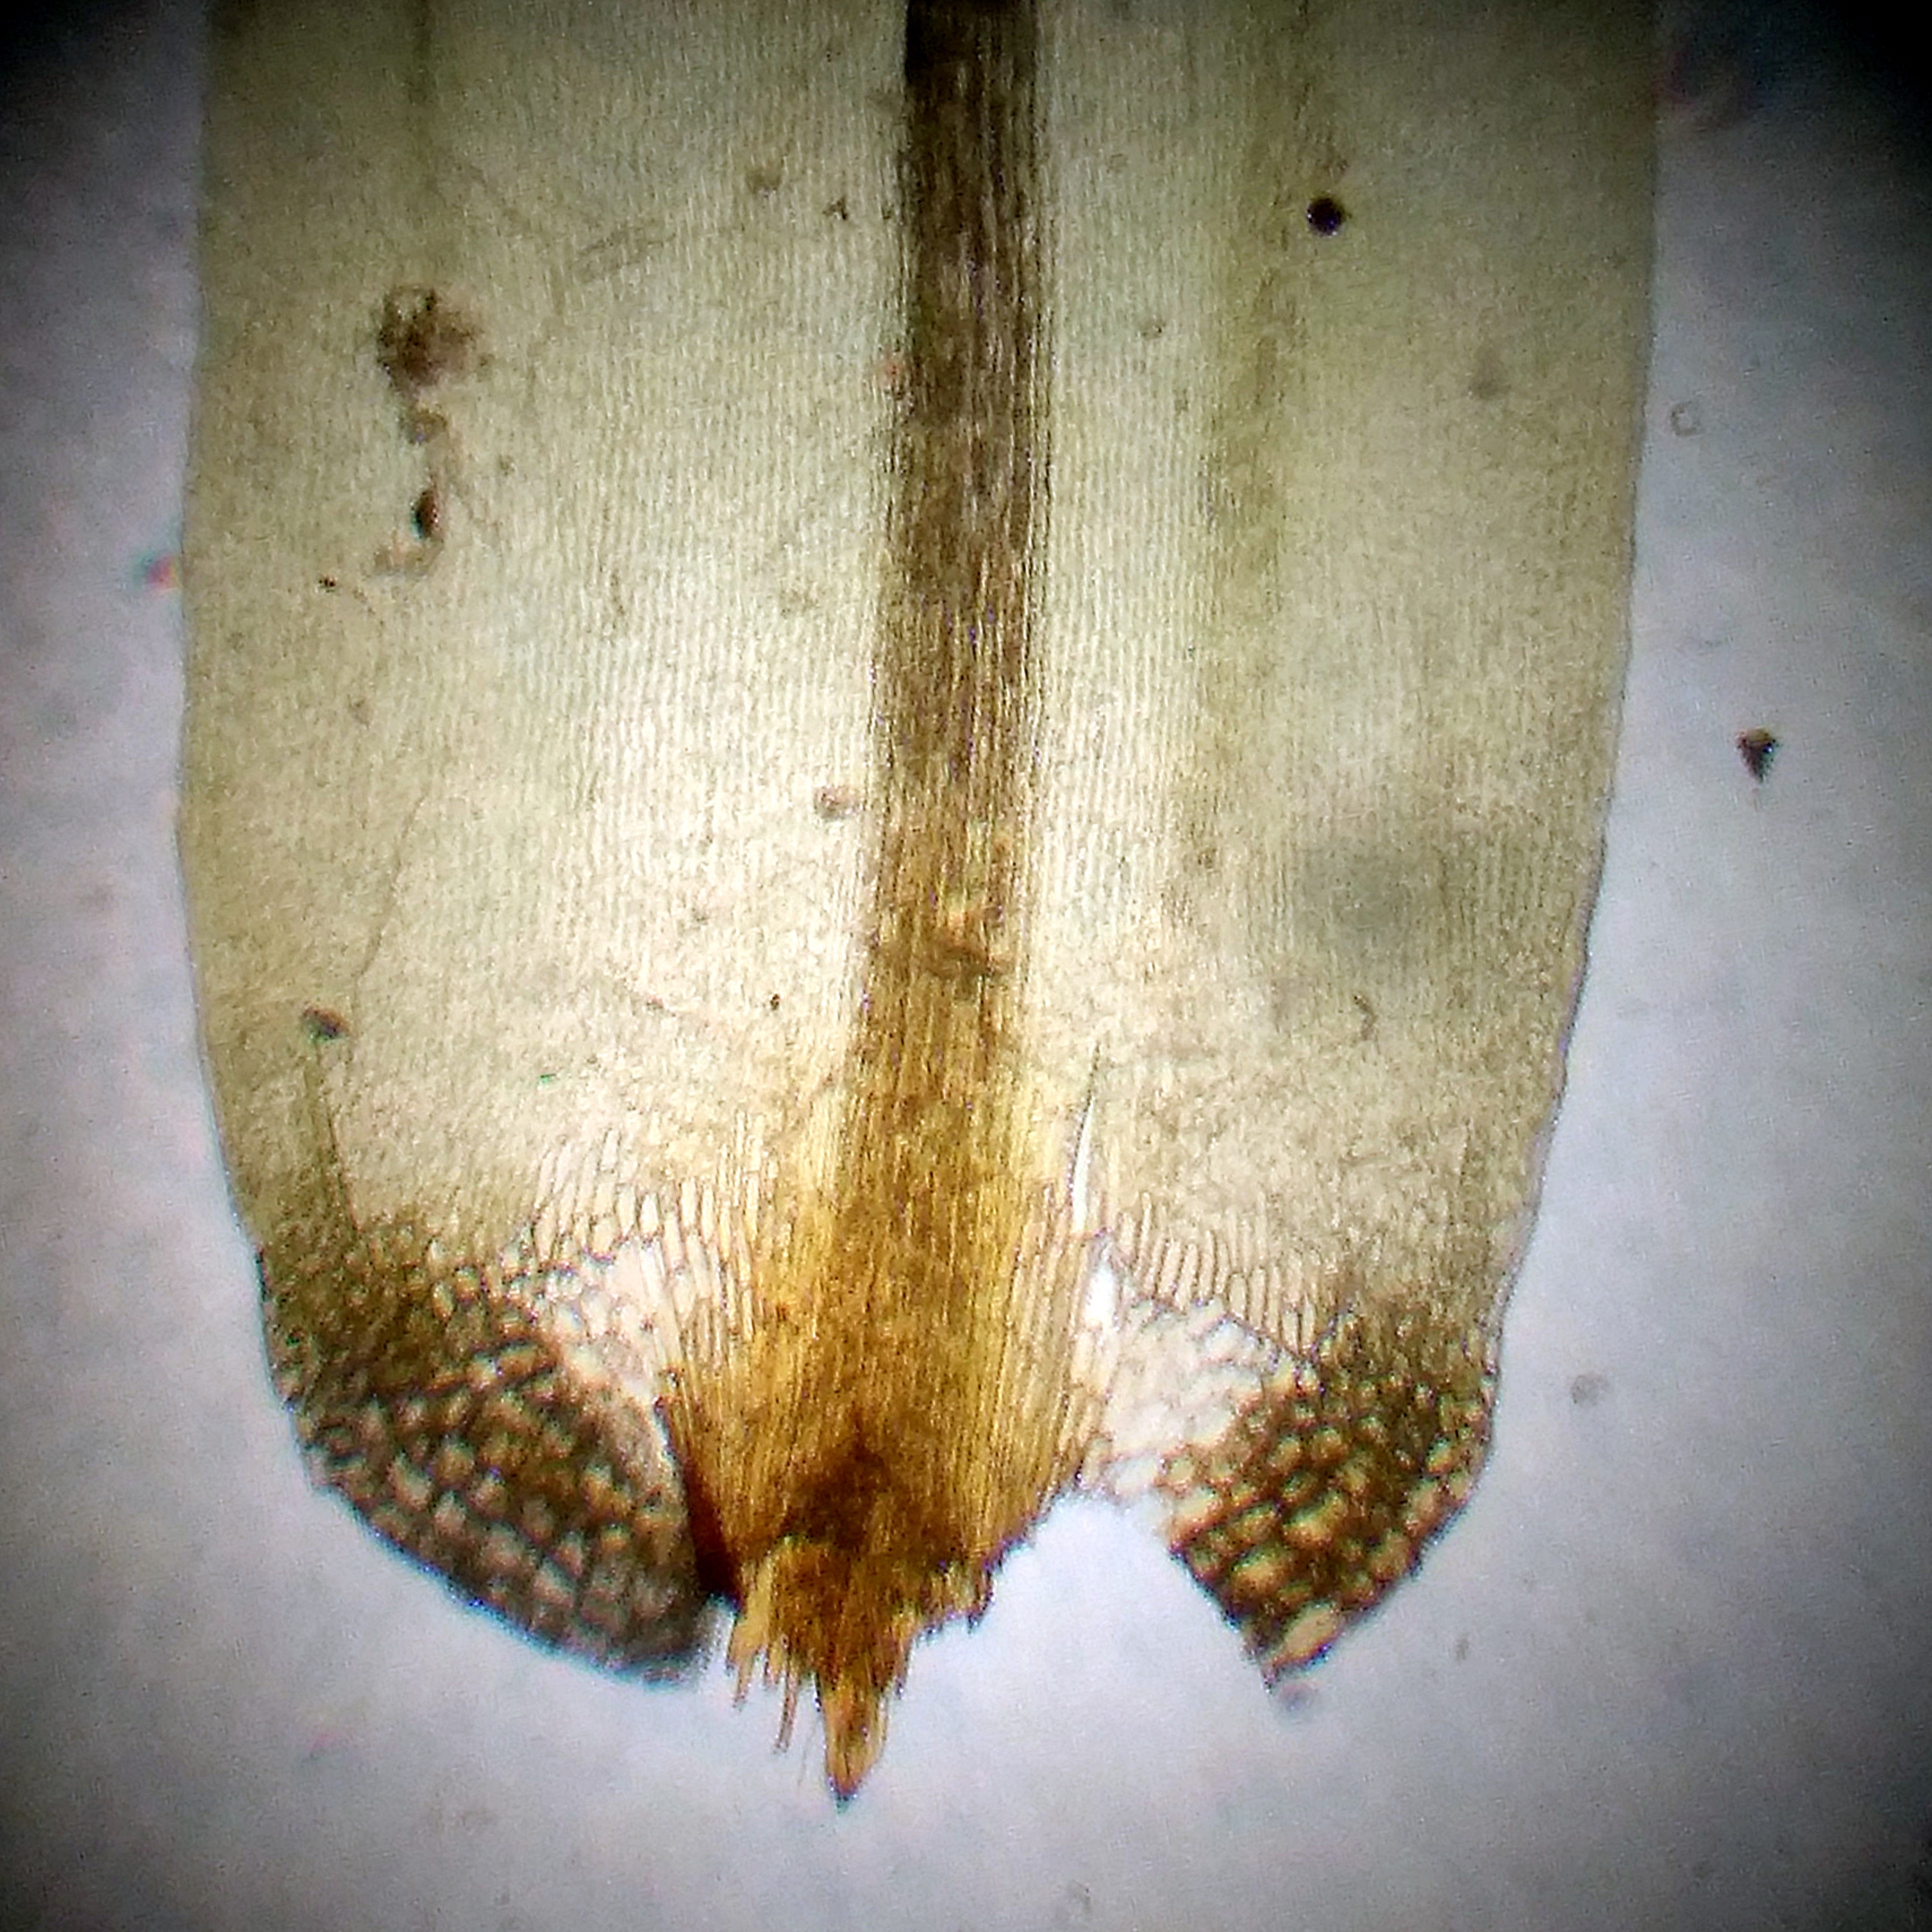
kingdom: Plantae
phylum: Bryophyta
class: Bryopsida
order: Dicranales
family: Dicranaceae
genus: Dicranum
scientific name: Dicranum undulatum
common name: Butbladet kløvtand
